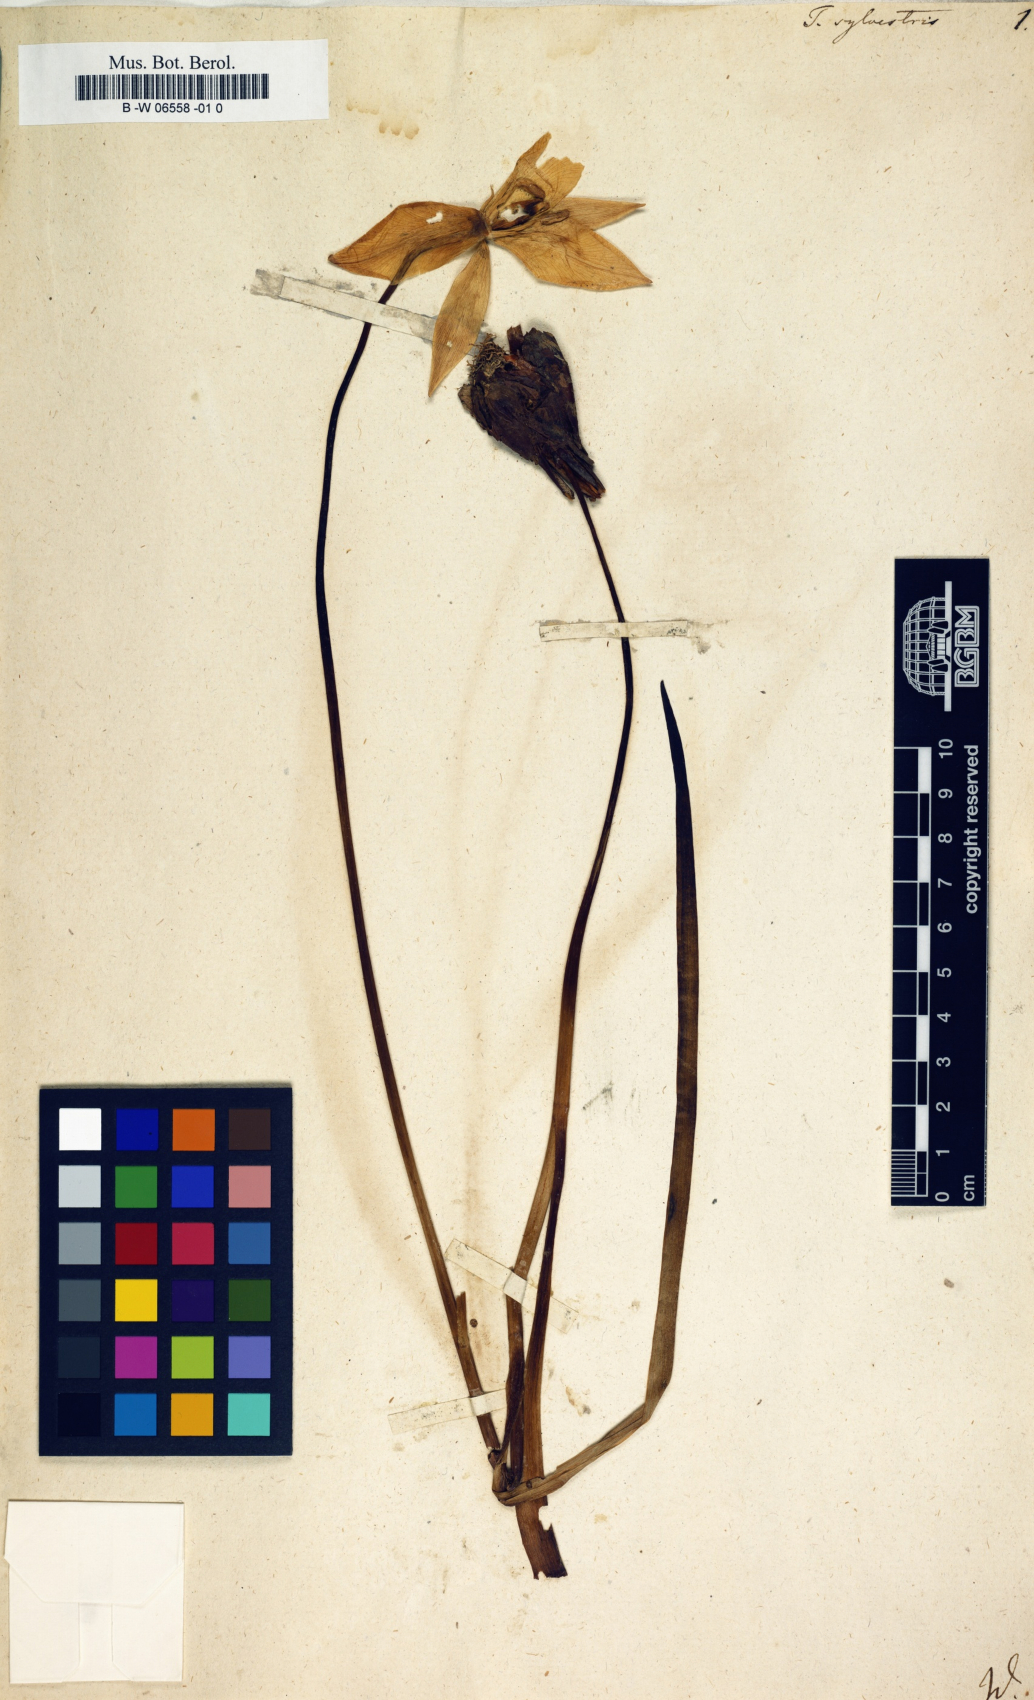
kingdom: Plantae
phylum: Tracheophyta
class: Liliopsida
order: Liliales
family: Liliaceae
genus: Tulipa
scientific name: Tulipa sylvestris
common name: Wild tulip
